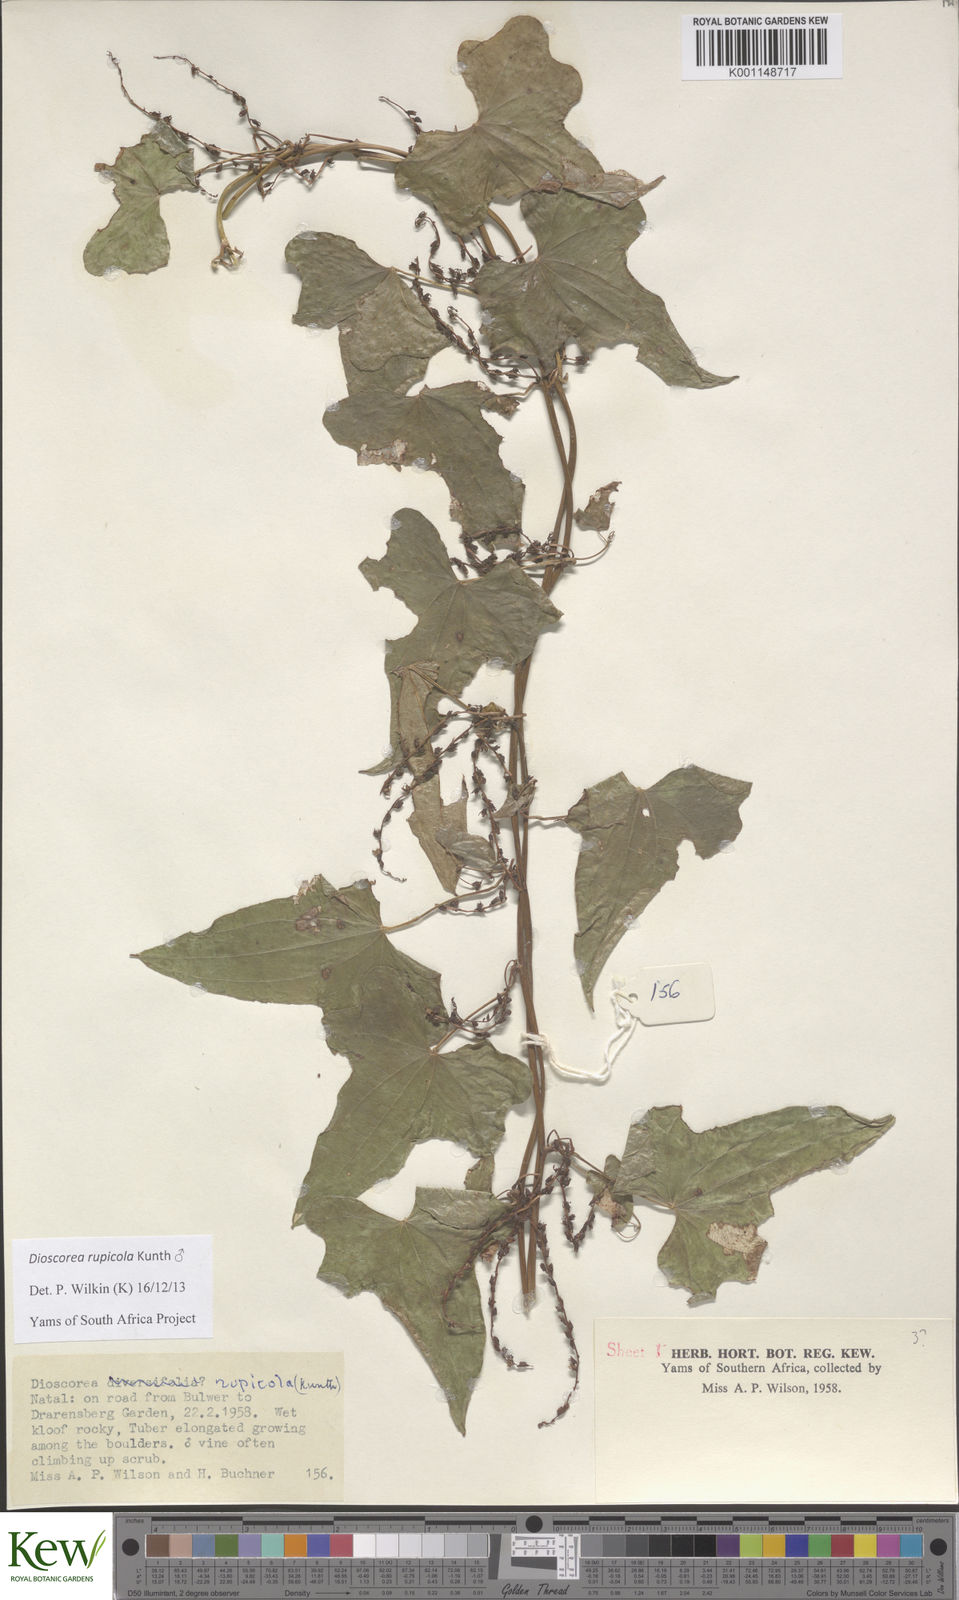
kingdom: Plantae
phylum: Tracheophyta
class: Liliopsida
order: Dioscoreales
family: Dioscoreaceae
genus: Dioscorea
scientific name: Dioscorea rupicola
